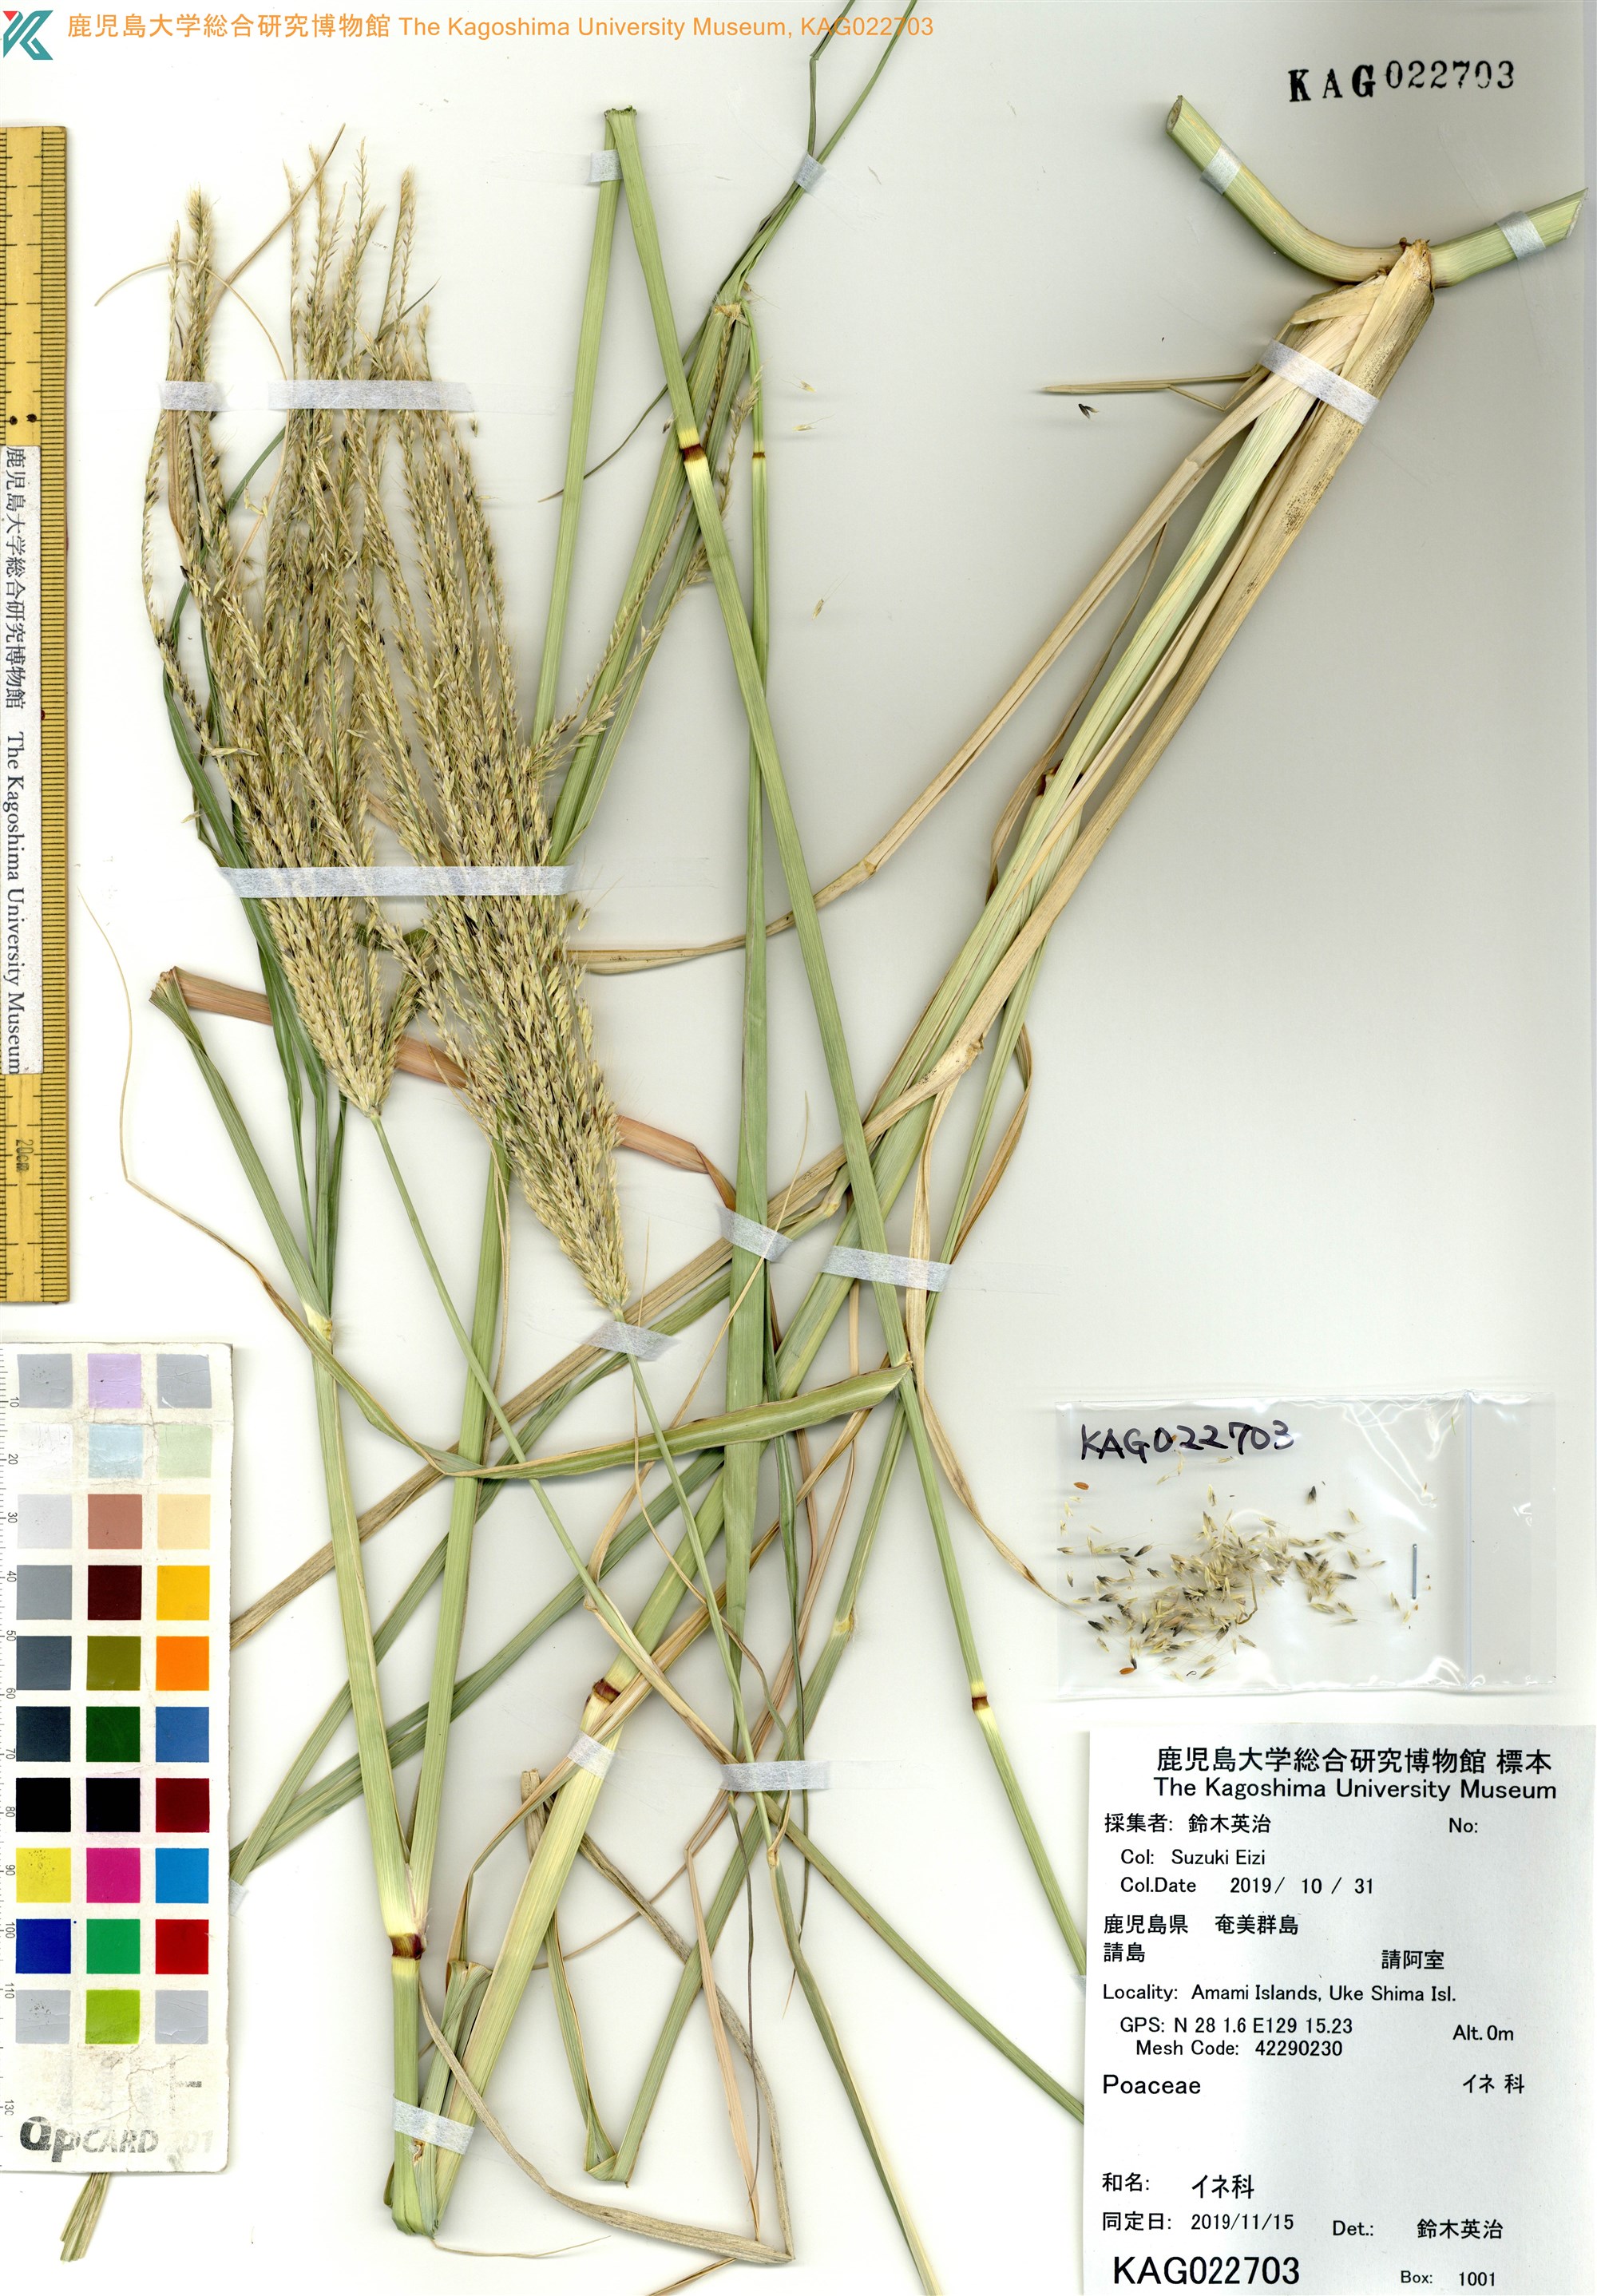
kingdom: Plantae
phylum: Tracheophyta
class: Liliopsida
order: Poales
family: Poaceae
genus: Chloris
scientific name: Chloris
